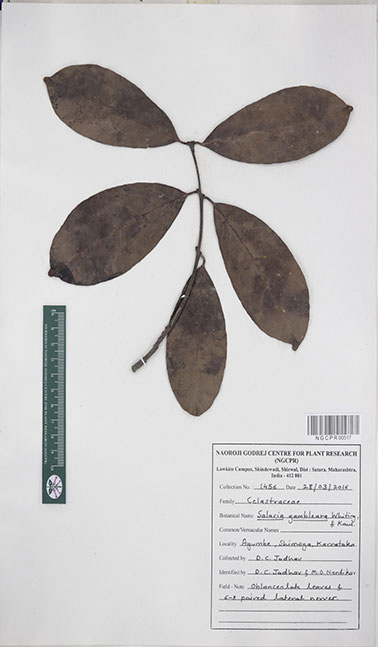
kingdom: Plantae
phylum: Tracheophyta
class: Magnoliopsida
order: Celastrales
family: Celastraceae
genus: Salacia
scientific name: Salacia gambleana
